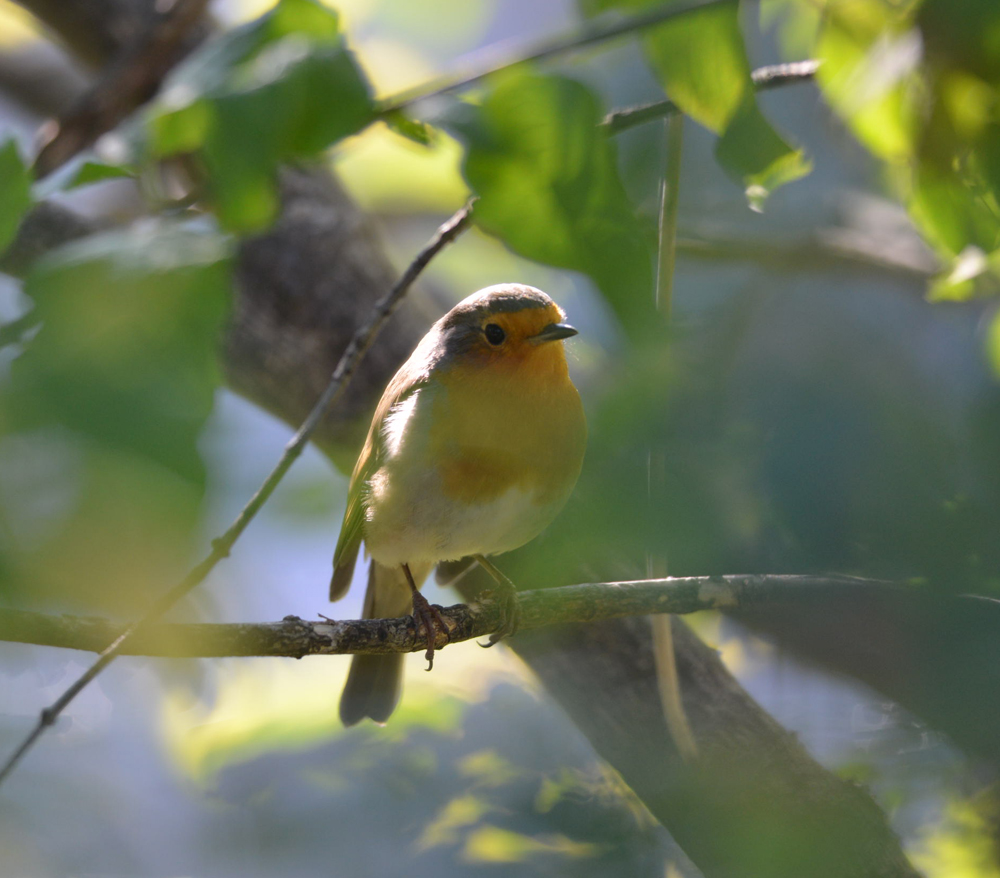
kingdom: Animalia
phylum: Chordata
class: Aves
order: Passeriformes
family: Muscicapidae
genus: Erithacus
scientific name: Erithacus rubecula
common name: European robin
